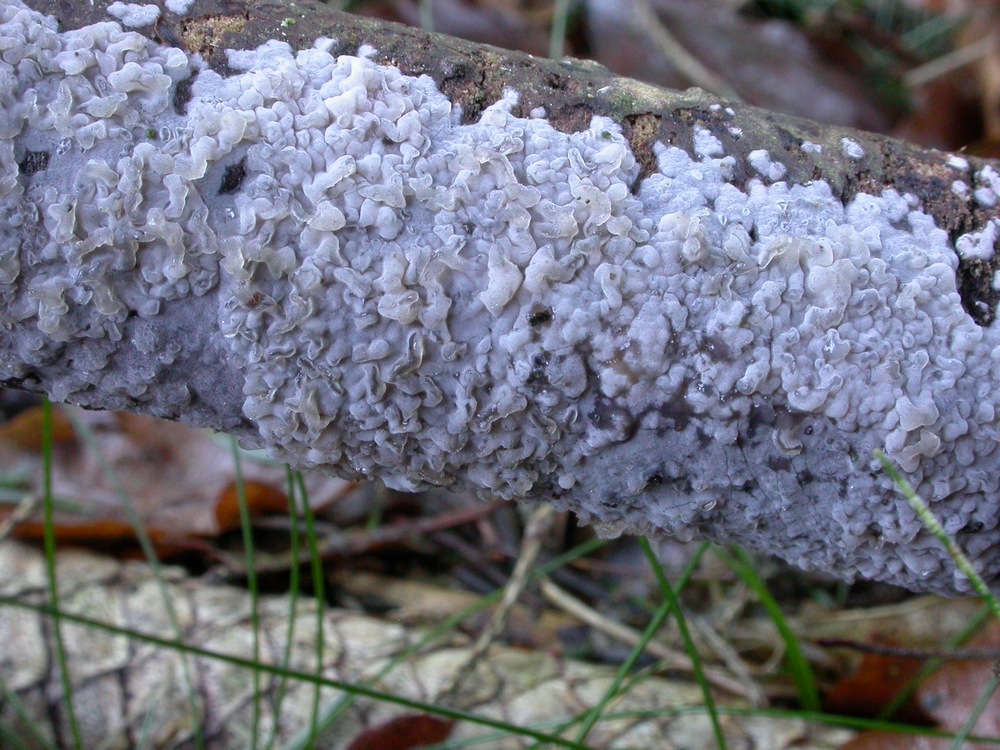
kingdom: Fungi
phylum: Basidiomycota
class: Agaricomycetes
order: Sebacinales
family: Sebacinaceae
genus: Sebacina
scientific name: Sebacina grisea
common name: blågrå bævrehinde
